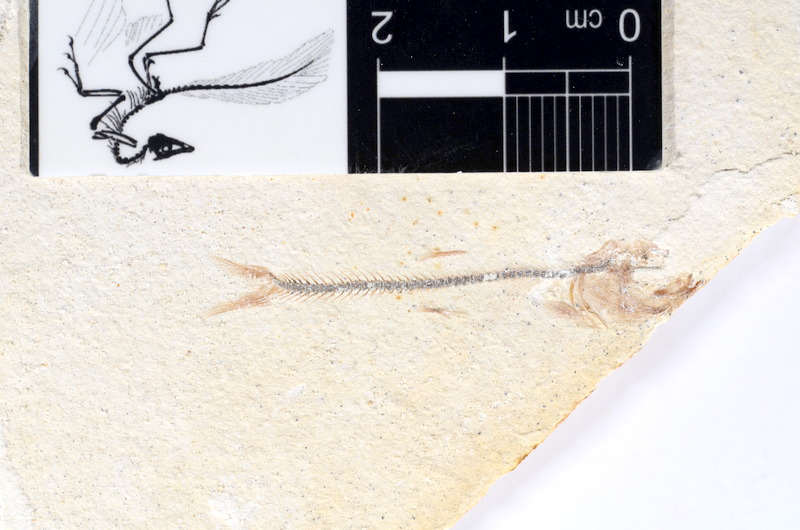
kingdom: Animalia
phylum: Chordata
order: Salmoniformes
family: Orthogonikleithridae
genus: Orthogonikleithrus
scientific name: Orthogonikleithrus hoelli
